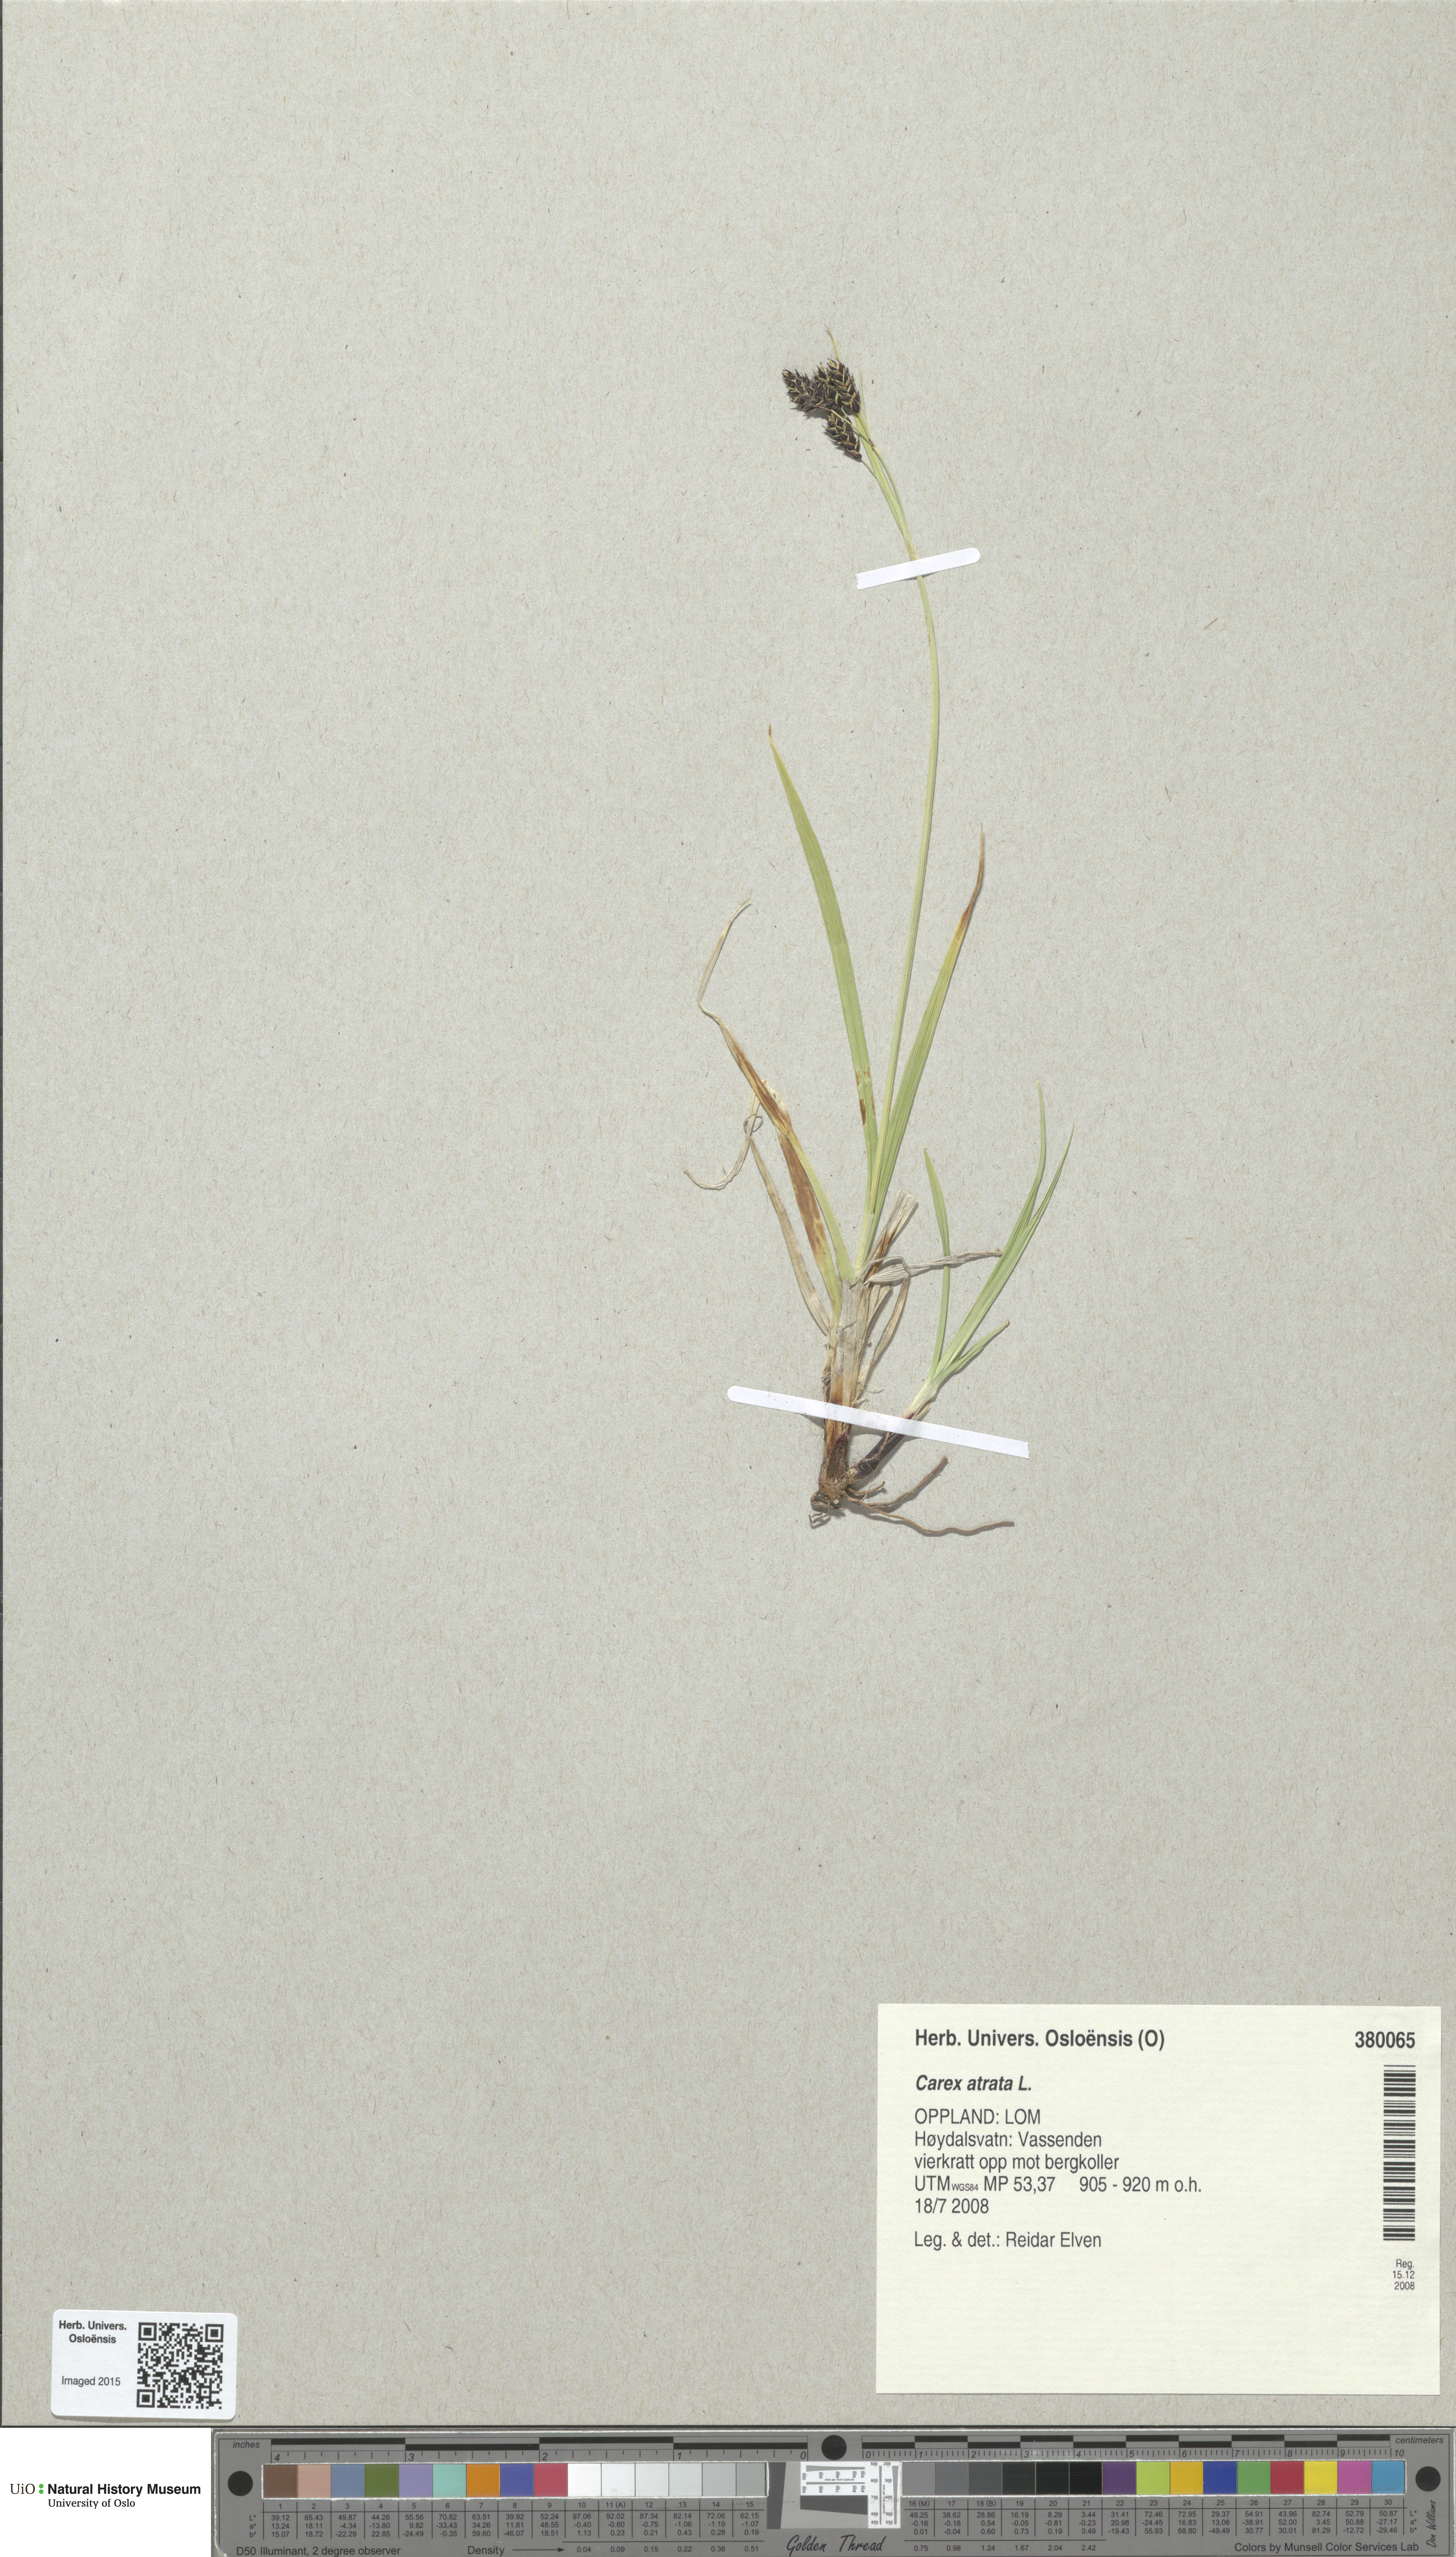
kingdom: Plantae
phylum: Tracheophyta
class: Liliopsida
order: Poales
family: Cyperaceae
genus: Carex
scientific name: Carex atrata
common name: Black alpine sedge
